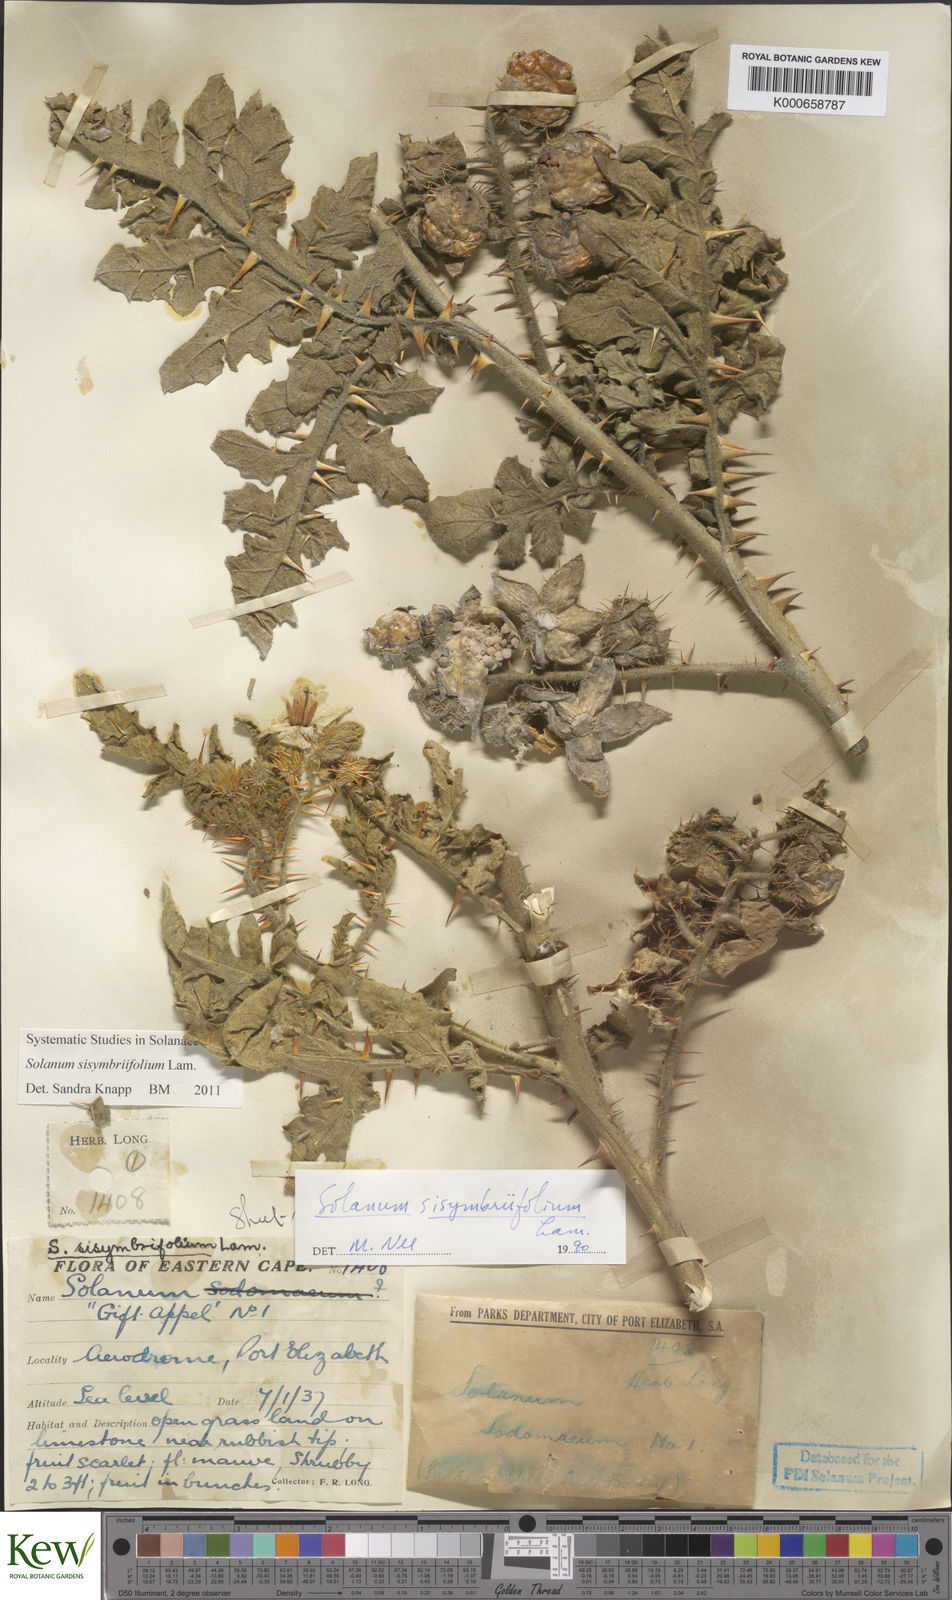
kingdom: Plantae
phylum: Tracheophyta
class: Magnoliopsida
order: Solanales
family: Solanaceae
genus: Solanum
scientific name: Solanum sisymbriifolium
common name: Red buffalo-bur
